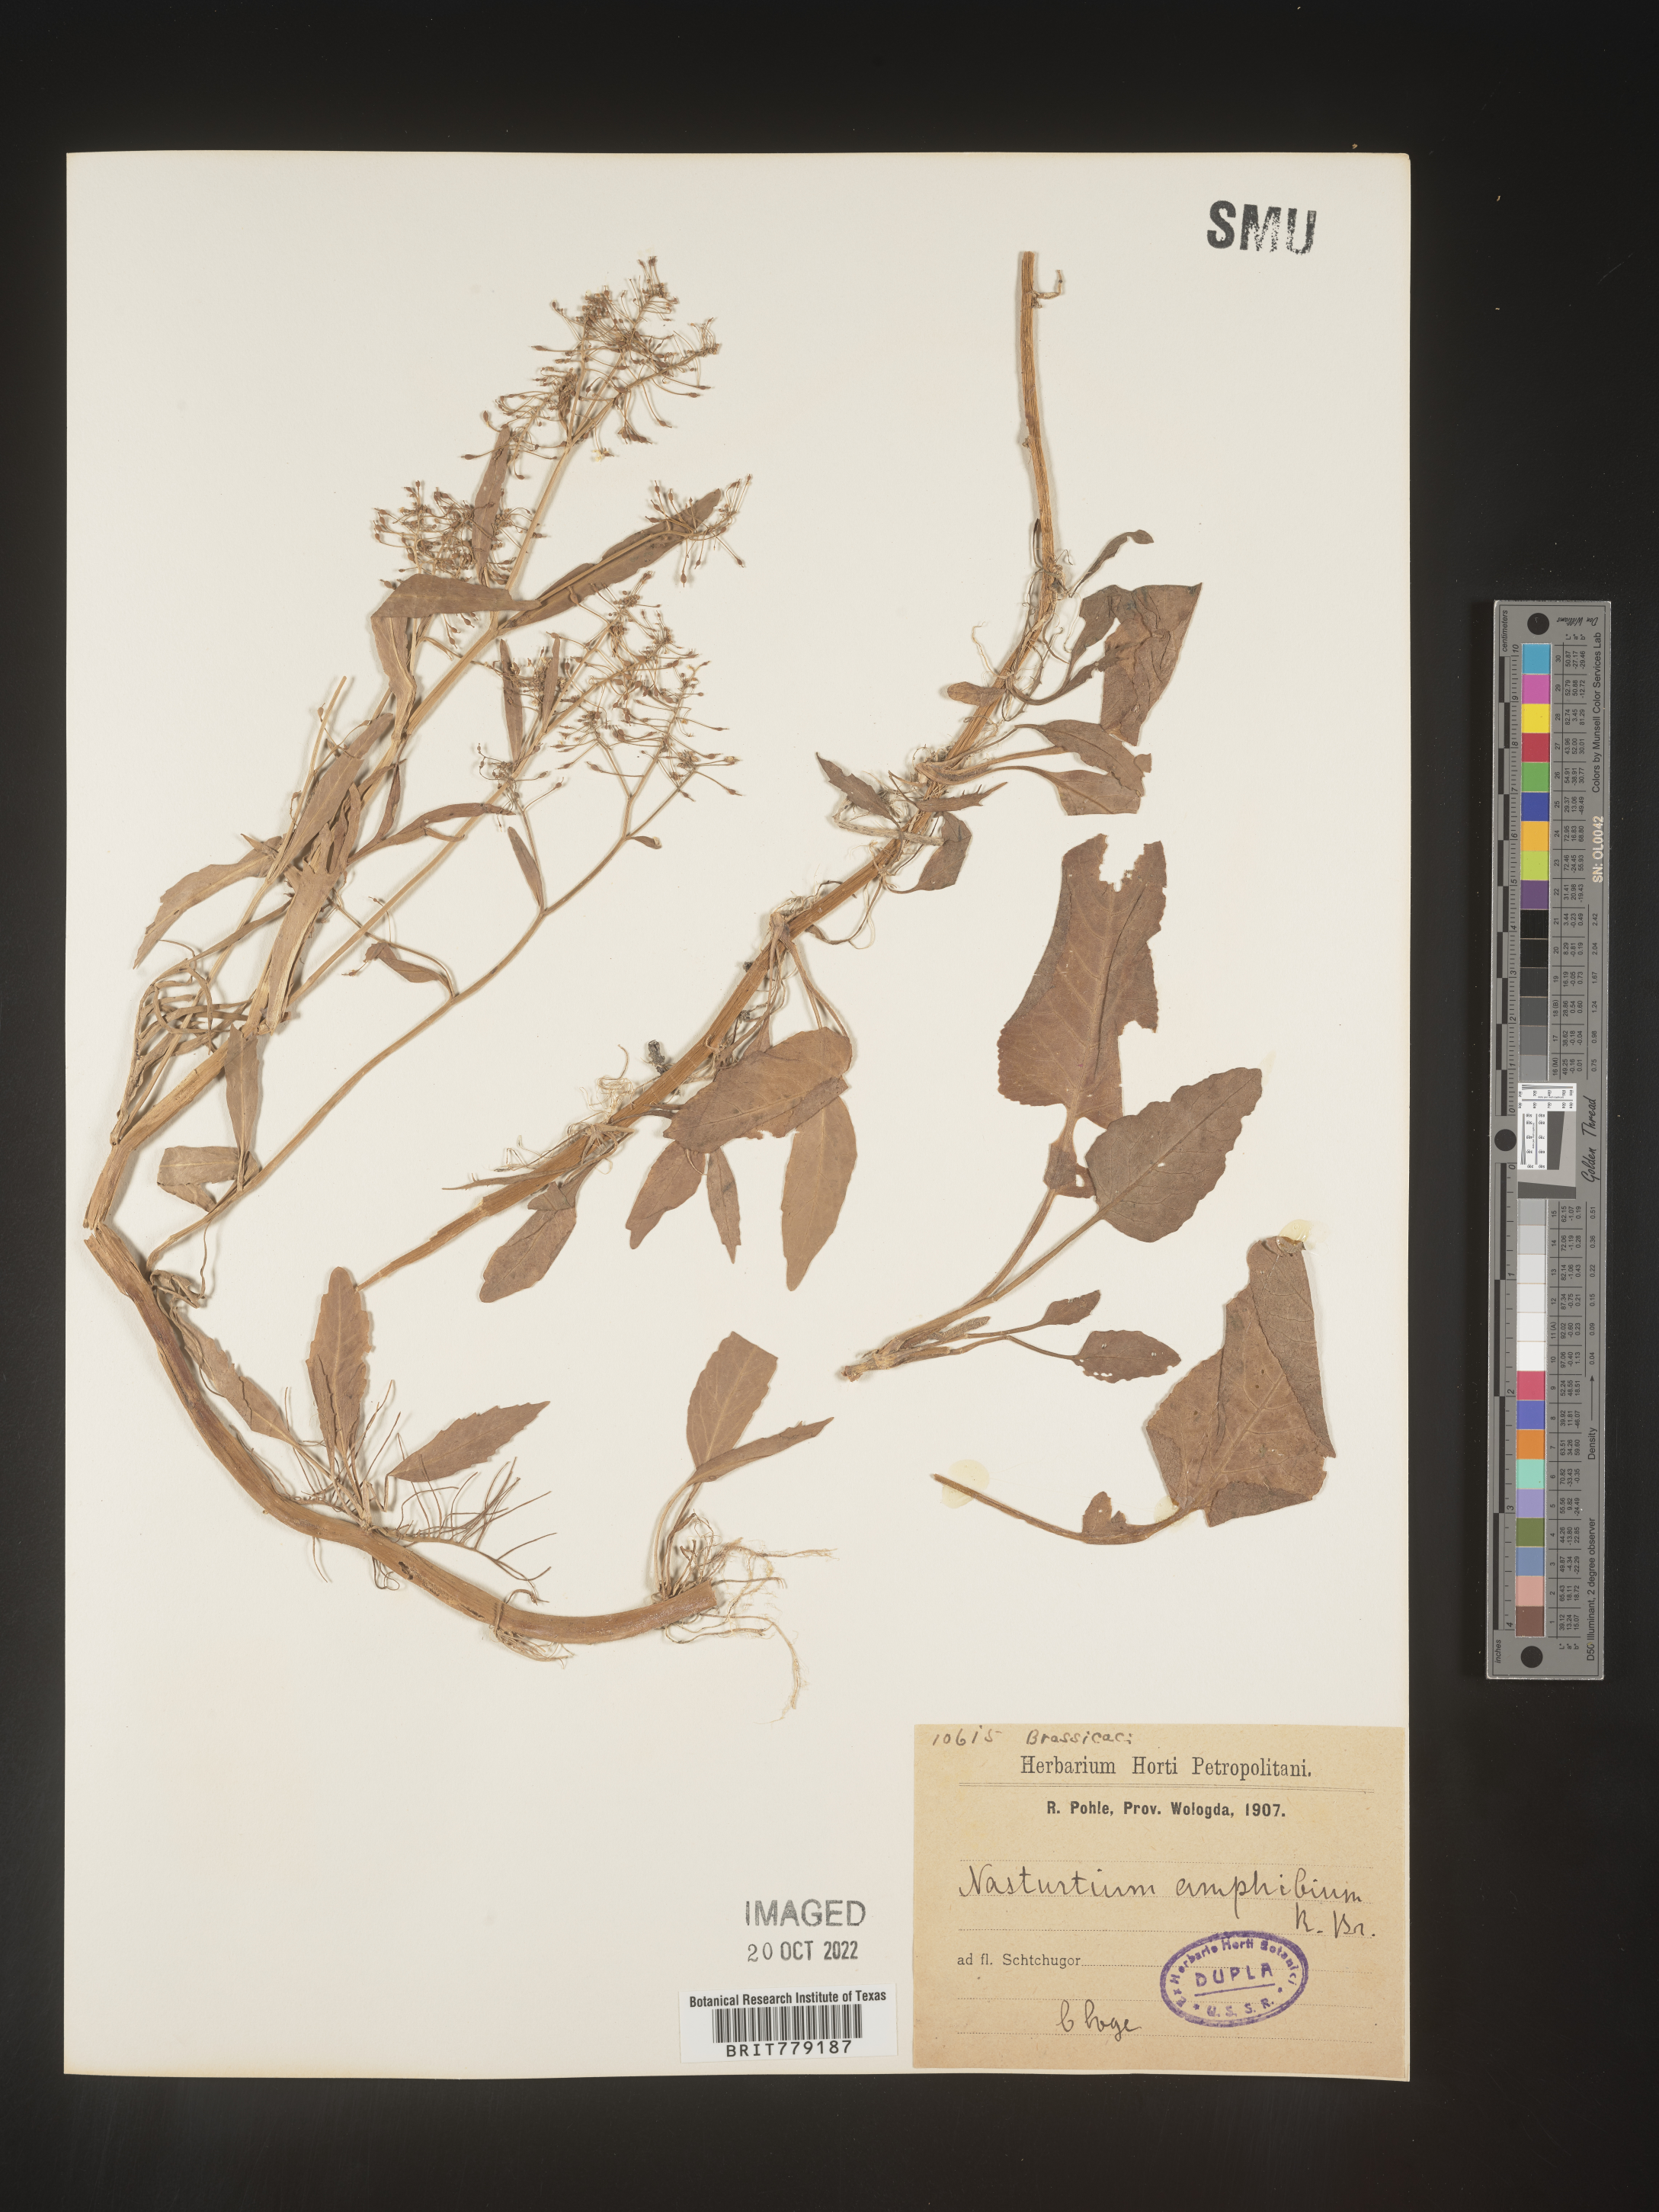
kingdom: Plantae
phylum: Tracheophyta
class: Magnoliopsida
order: Brassicales
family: Brassicaceae
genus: Rorippa
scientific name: Rorippa
